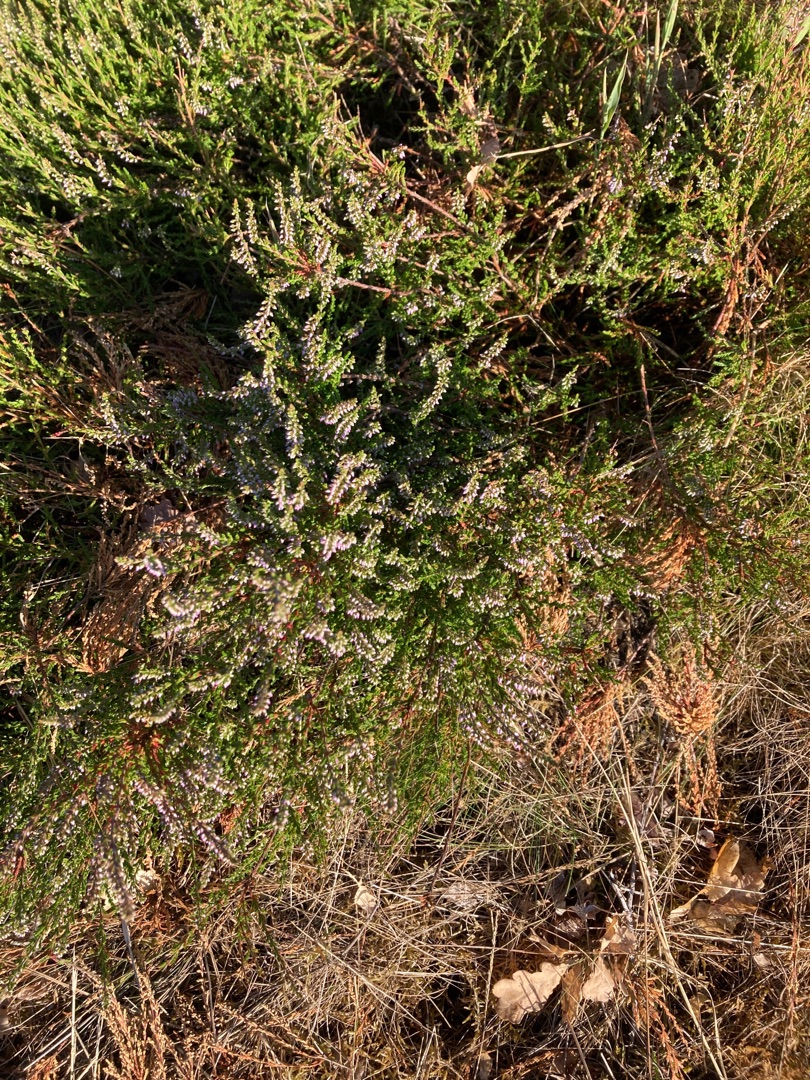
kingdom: Plantae
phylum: Tracheophyta
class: Magnoliopsida
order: Ericales
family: Ericaceae
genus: Calluna
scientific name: Calluna vulgaris
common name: Hedelyng
